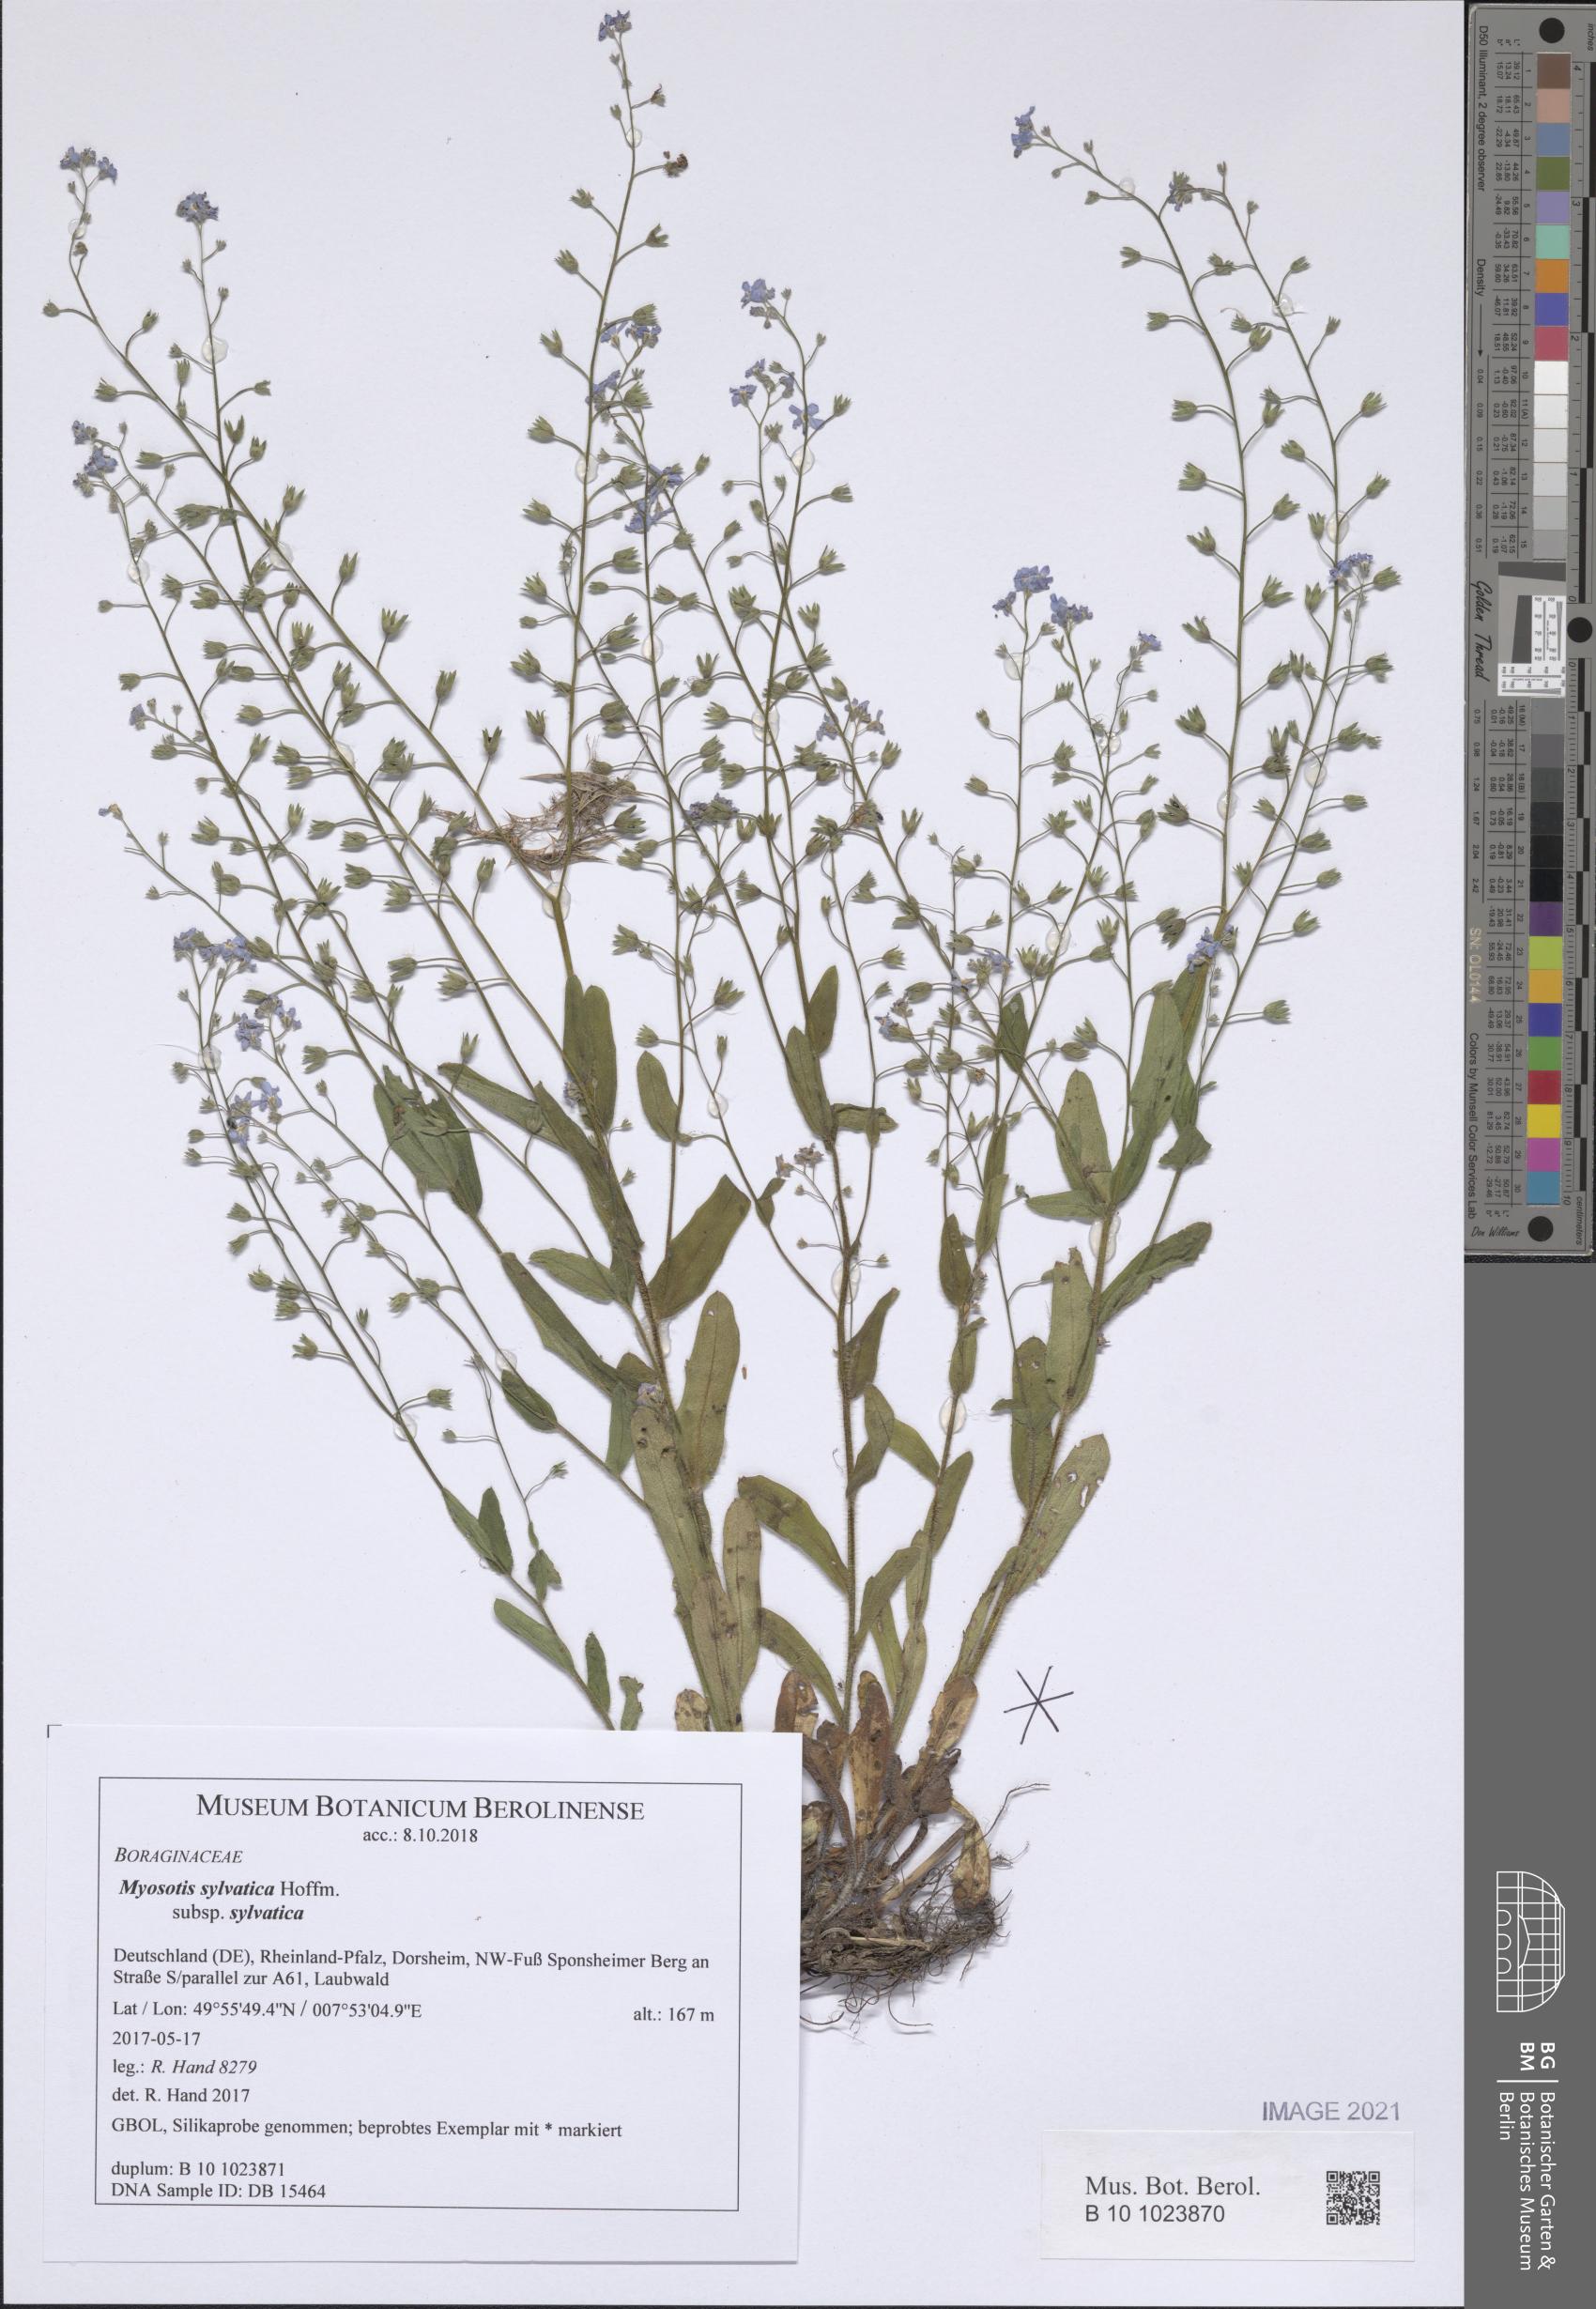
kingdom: Plantae
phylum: Tracheophyta
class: Magnoliopsida
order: Boraginales
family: Boraginaceae
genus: Myosotis
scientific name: Myosotis sylvatica
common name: Wood forget-me-not
